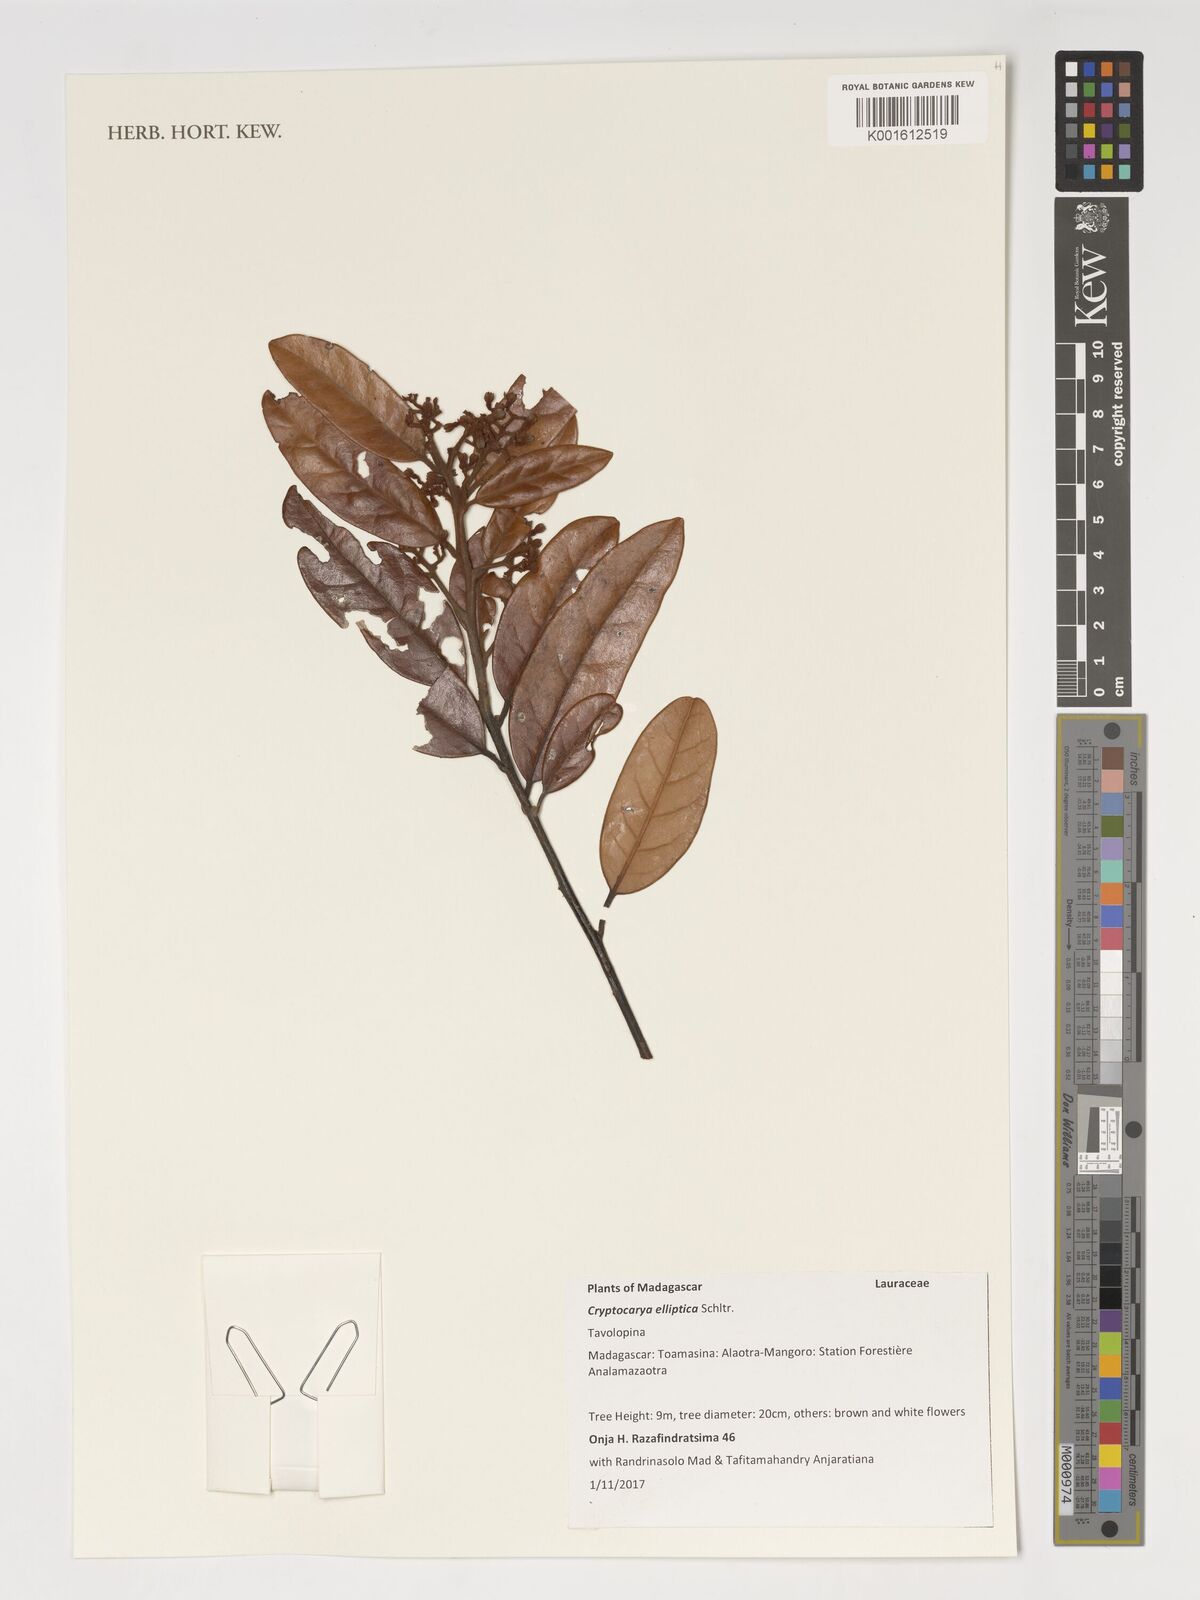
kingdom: Plantae
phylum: Tracheophyta
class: Magnoliopsida
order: Laurales
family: Lauraceae
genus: Cryptocarya
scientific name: Cryptocarya elliptica
